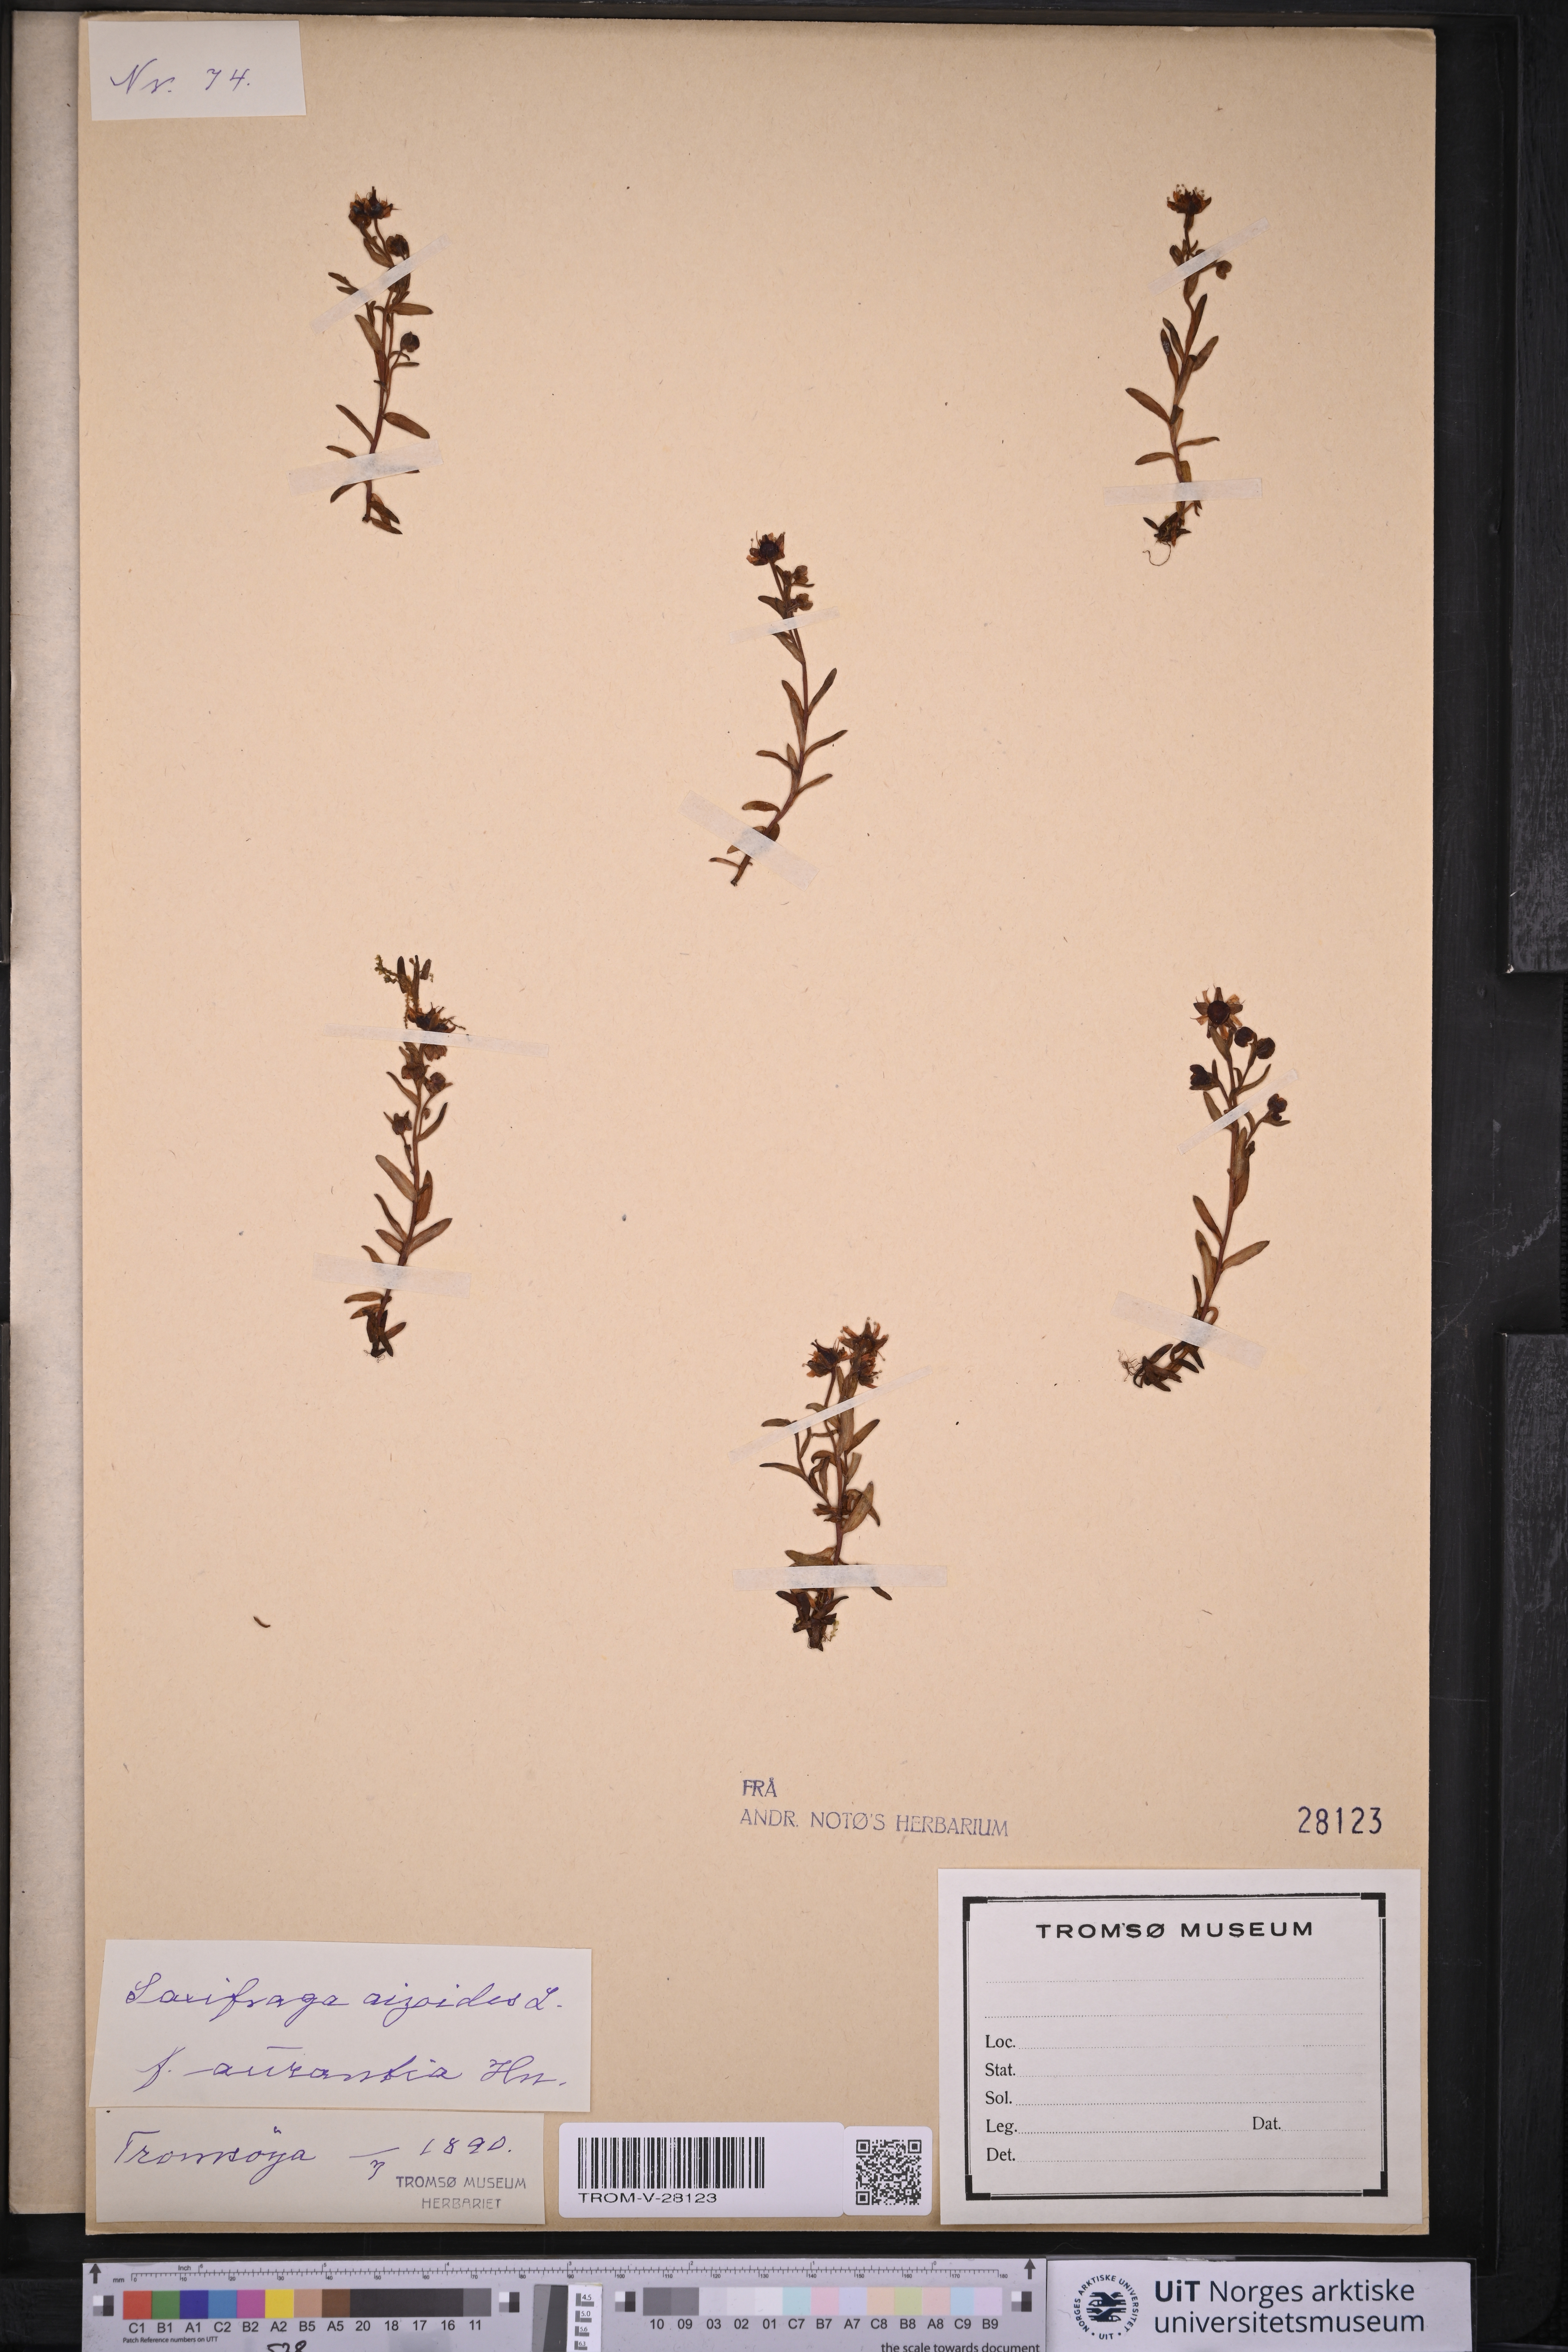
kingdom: Plantae
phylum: Tracheophyta
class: Magnoliopsida
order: Saxifragales
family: Saxifragaceae
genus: Saxifraga
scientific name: Saxifraga aizoides
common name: Yellow mountain saxifrage
